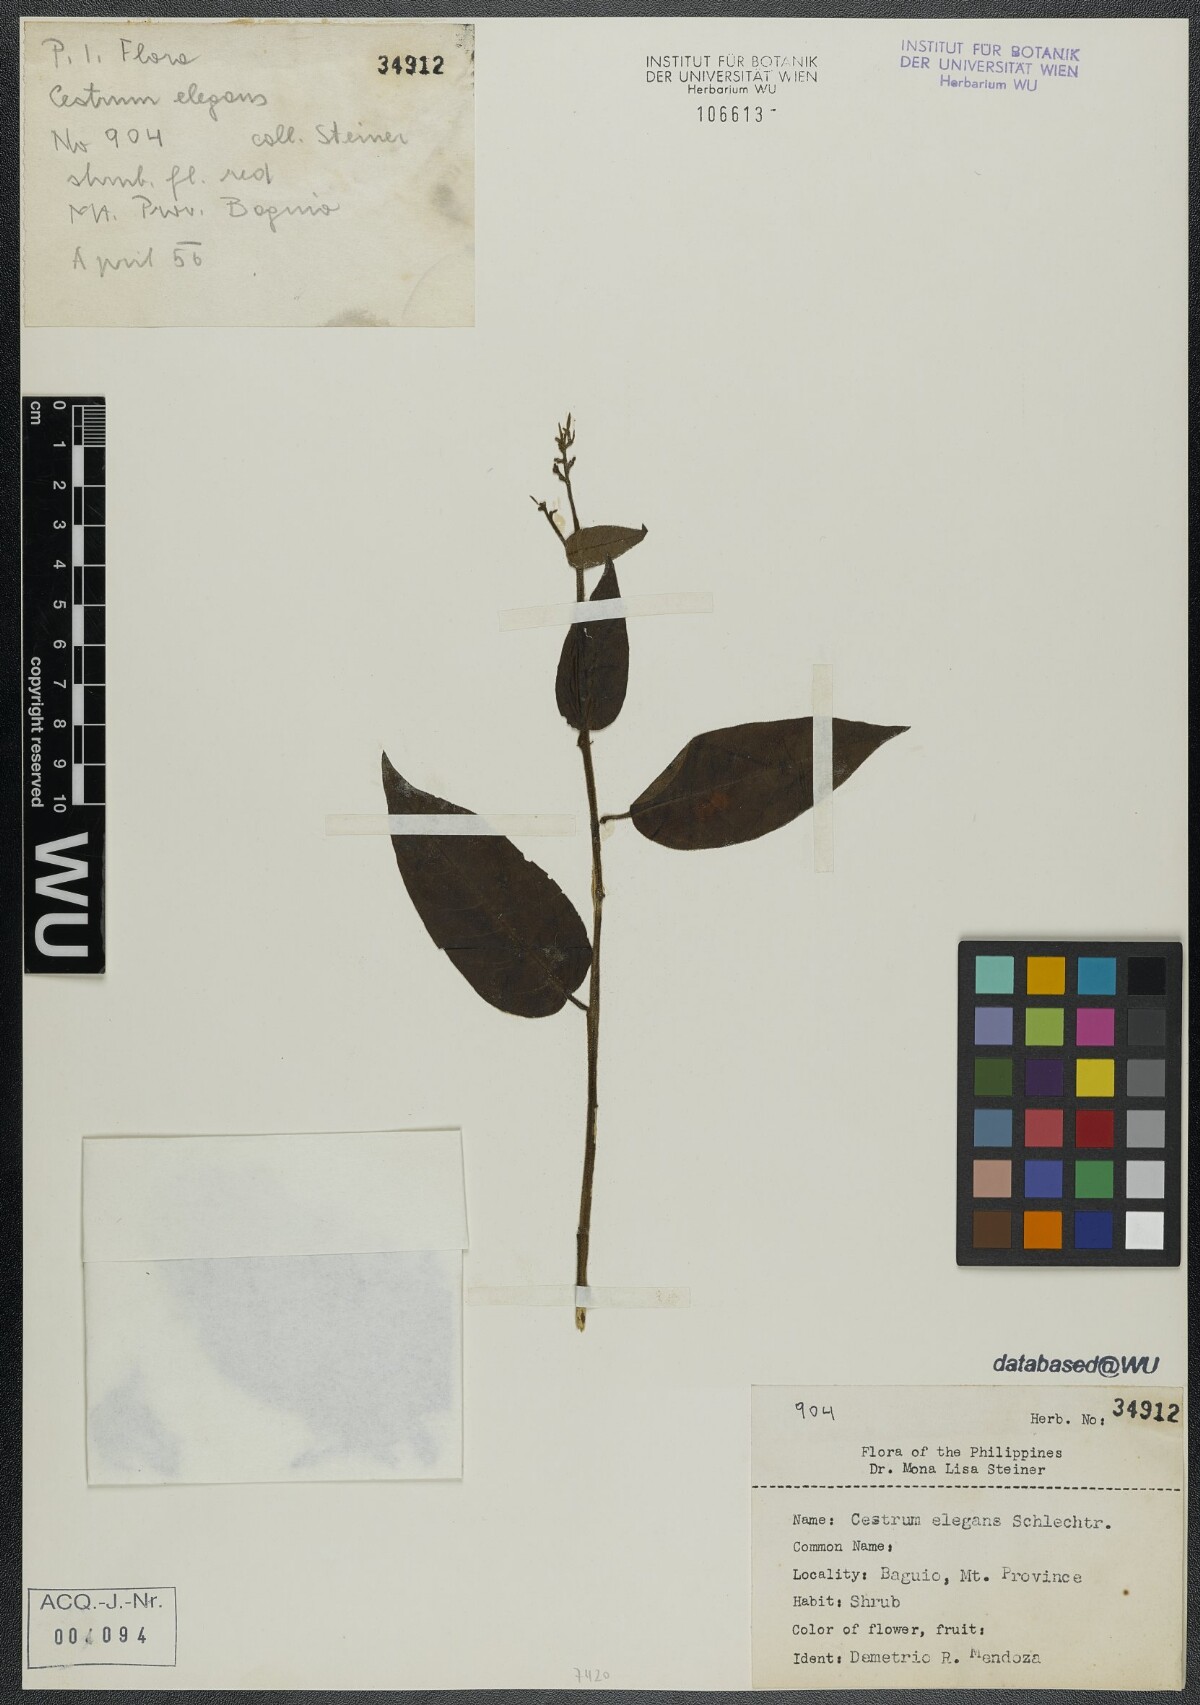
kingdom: Plantae
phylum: Tracheophyta
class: Magnoliopsida
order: Solanales
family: Solanaceae
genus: Cestrum
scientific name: Cestrum elegans
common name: Crimson cestrum
